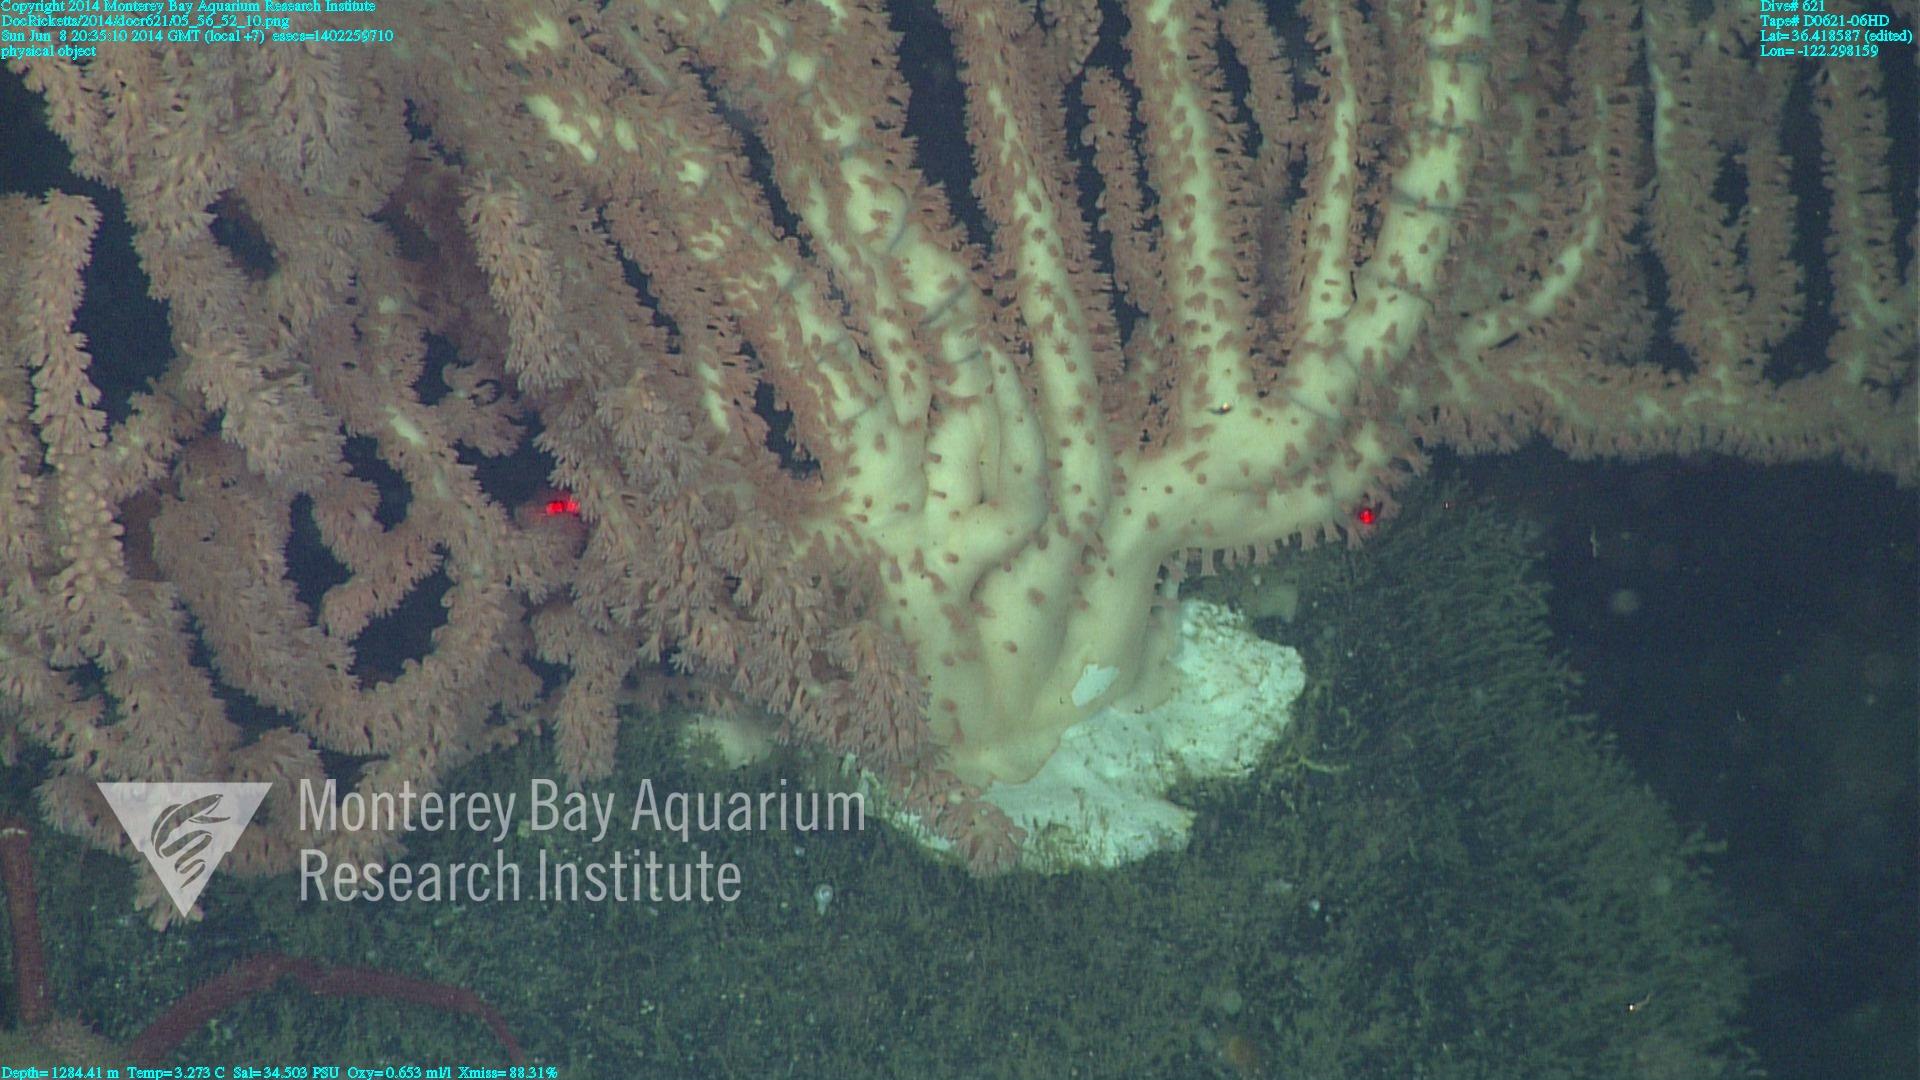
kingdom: Animalia
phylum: Cnidaria
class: Anthozoa
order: Scleralcyonacea
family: Keratoisididae
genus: Keratoisis
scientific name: Keratoisis
